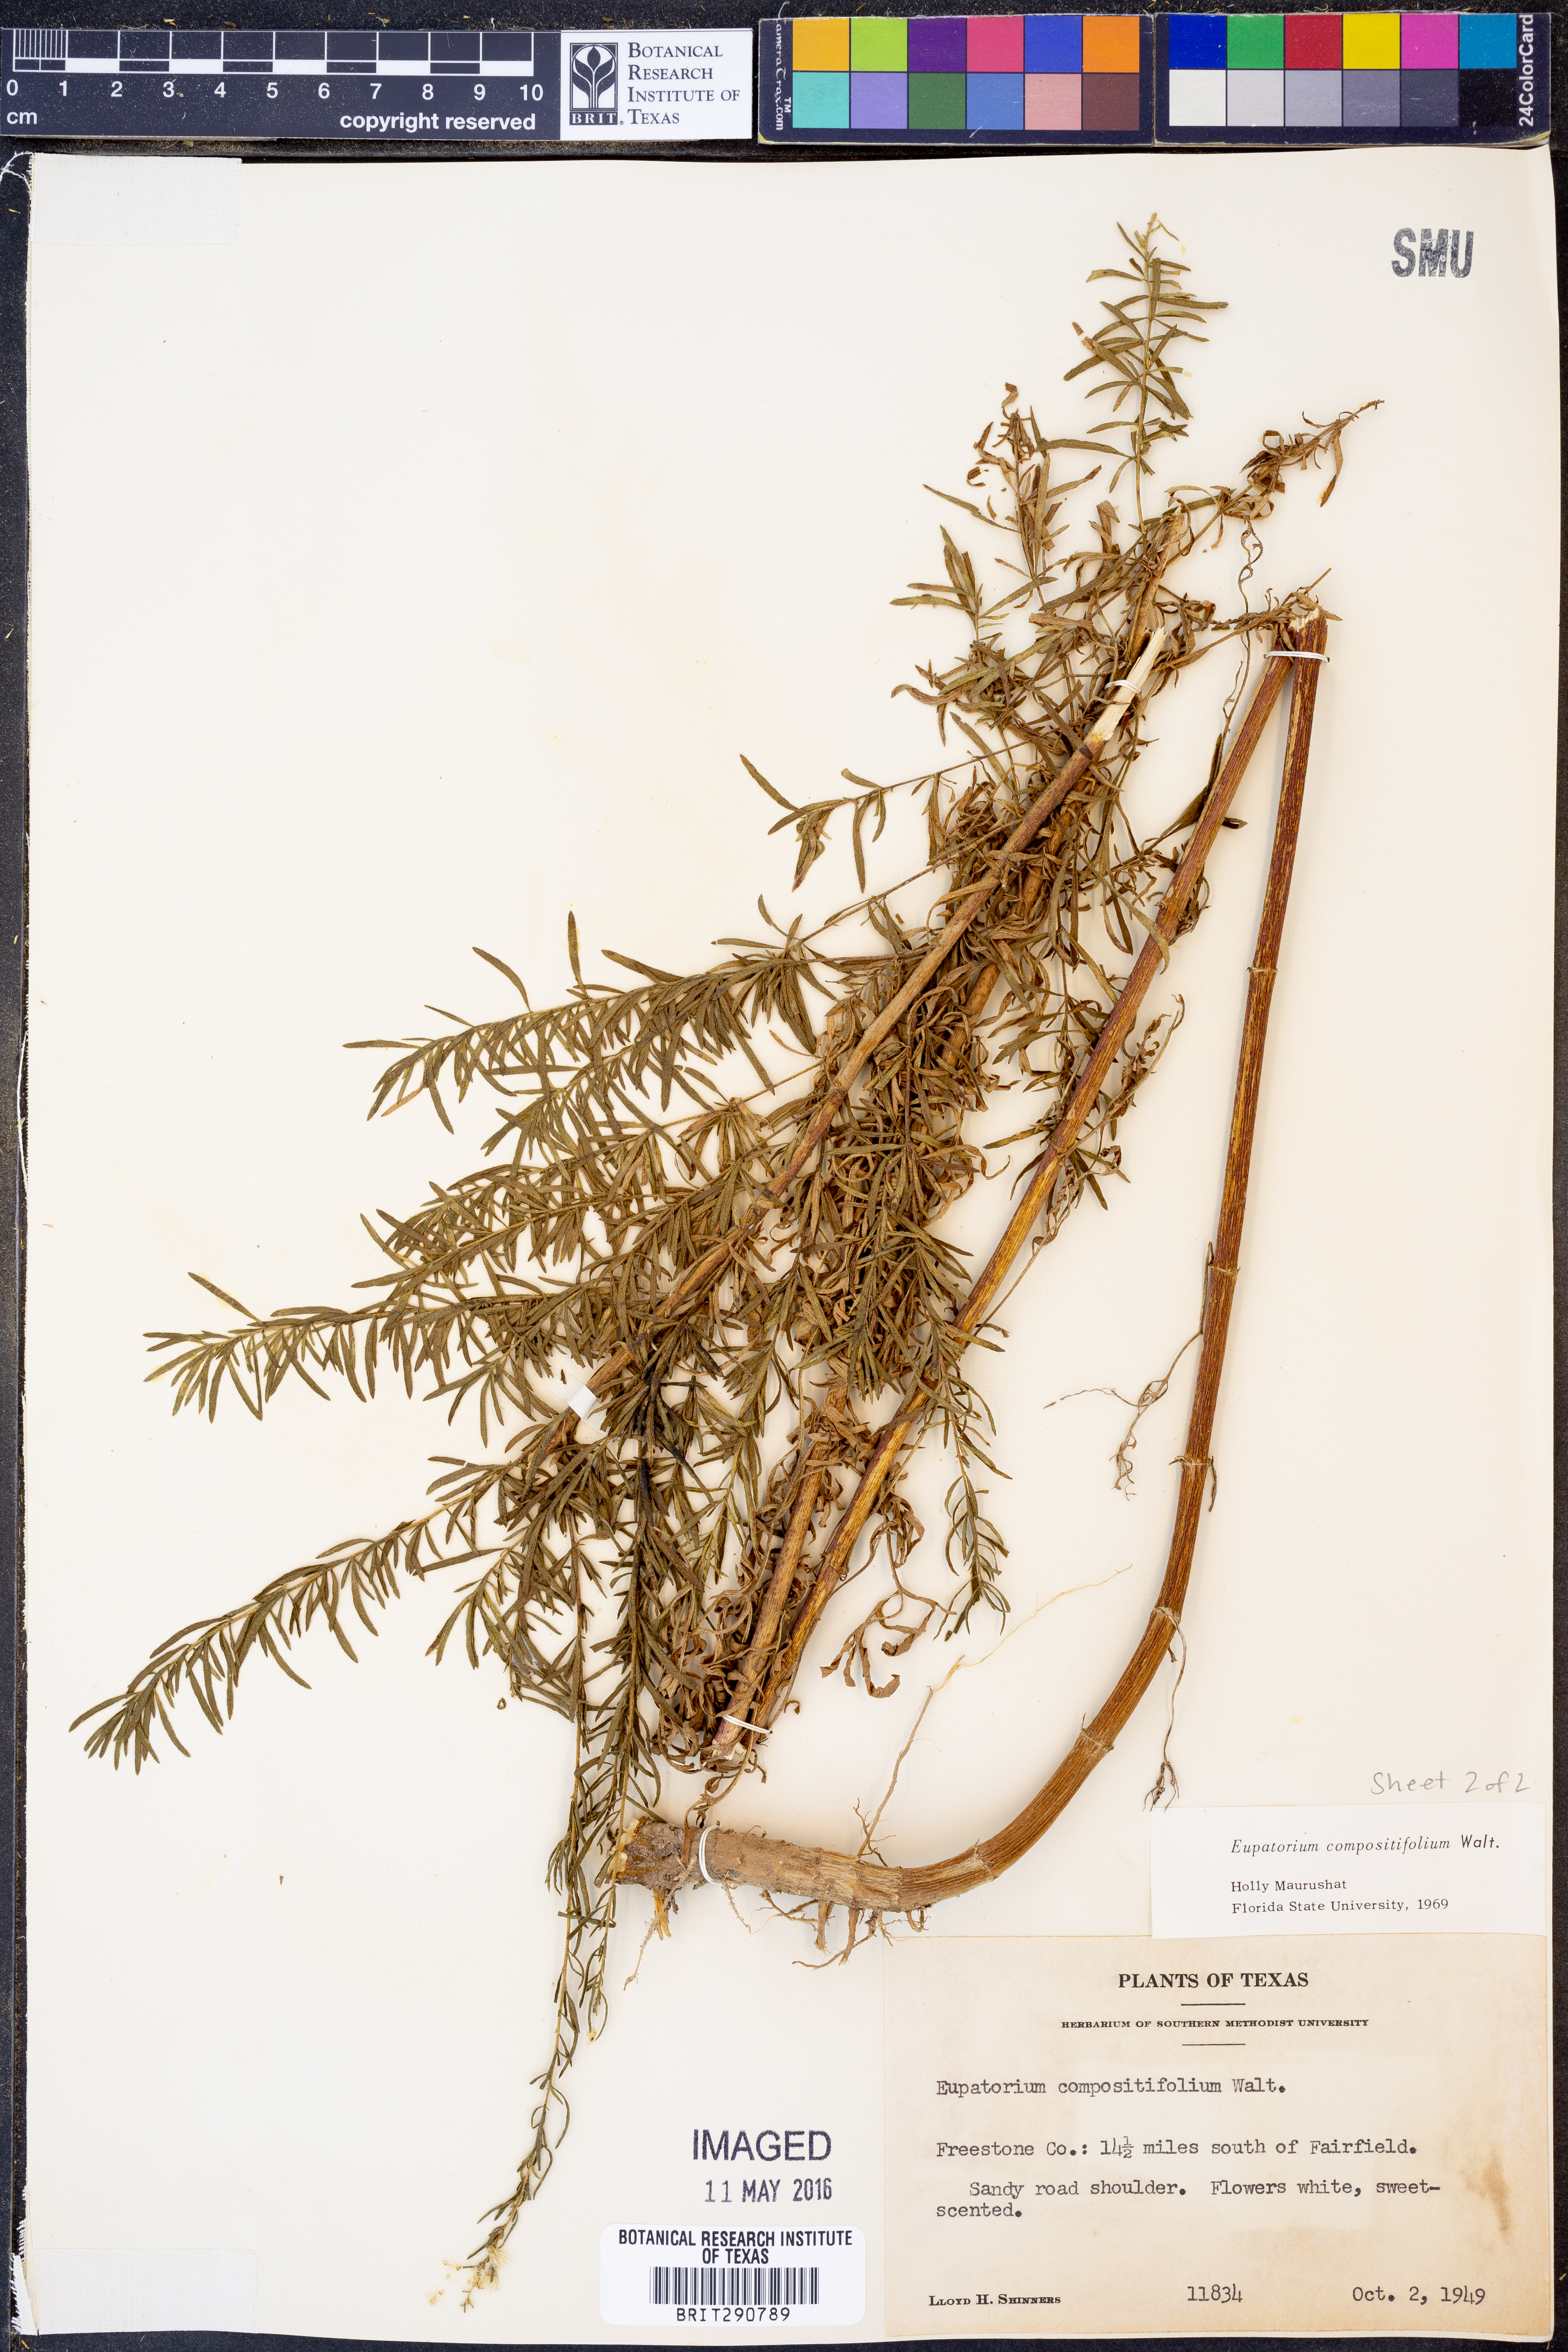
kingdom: Plantae
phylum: Tracheophyta
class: Magnoliopsida
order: Asterales
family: Asteraceae
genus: Eupatorium
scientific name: Eupatorium compositifolium
